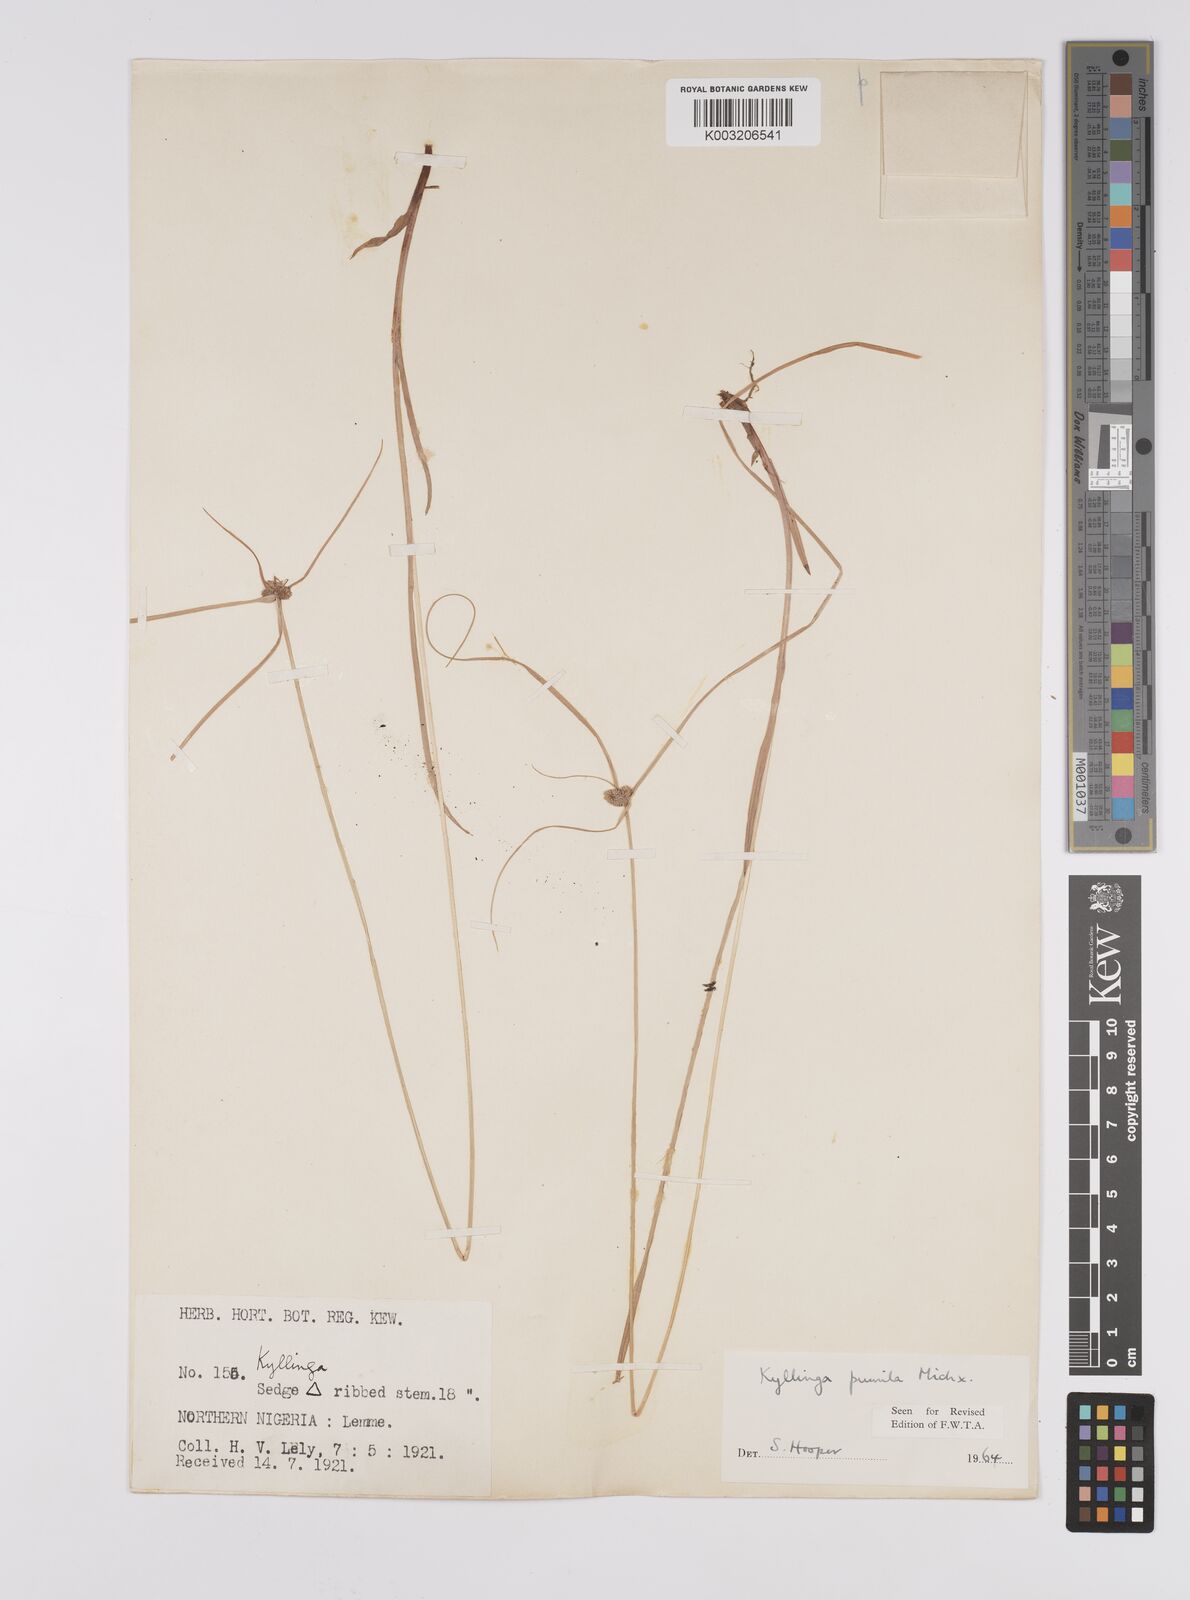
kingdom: Plantae
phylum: Tracheophyta
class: Liliopsida
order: Poales
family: Cyperaceae
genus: Cyperus
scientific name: Cyperus
